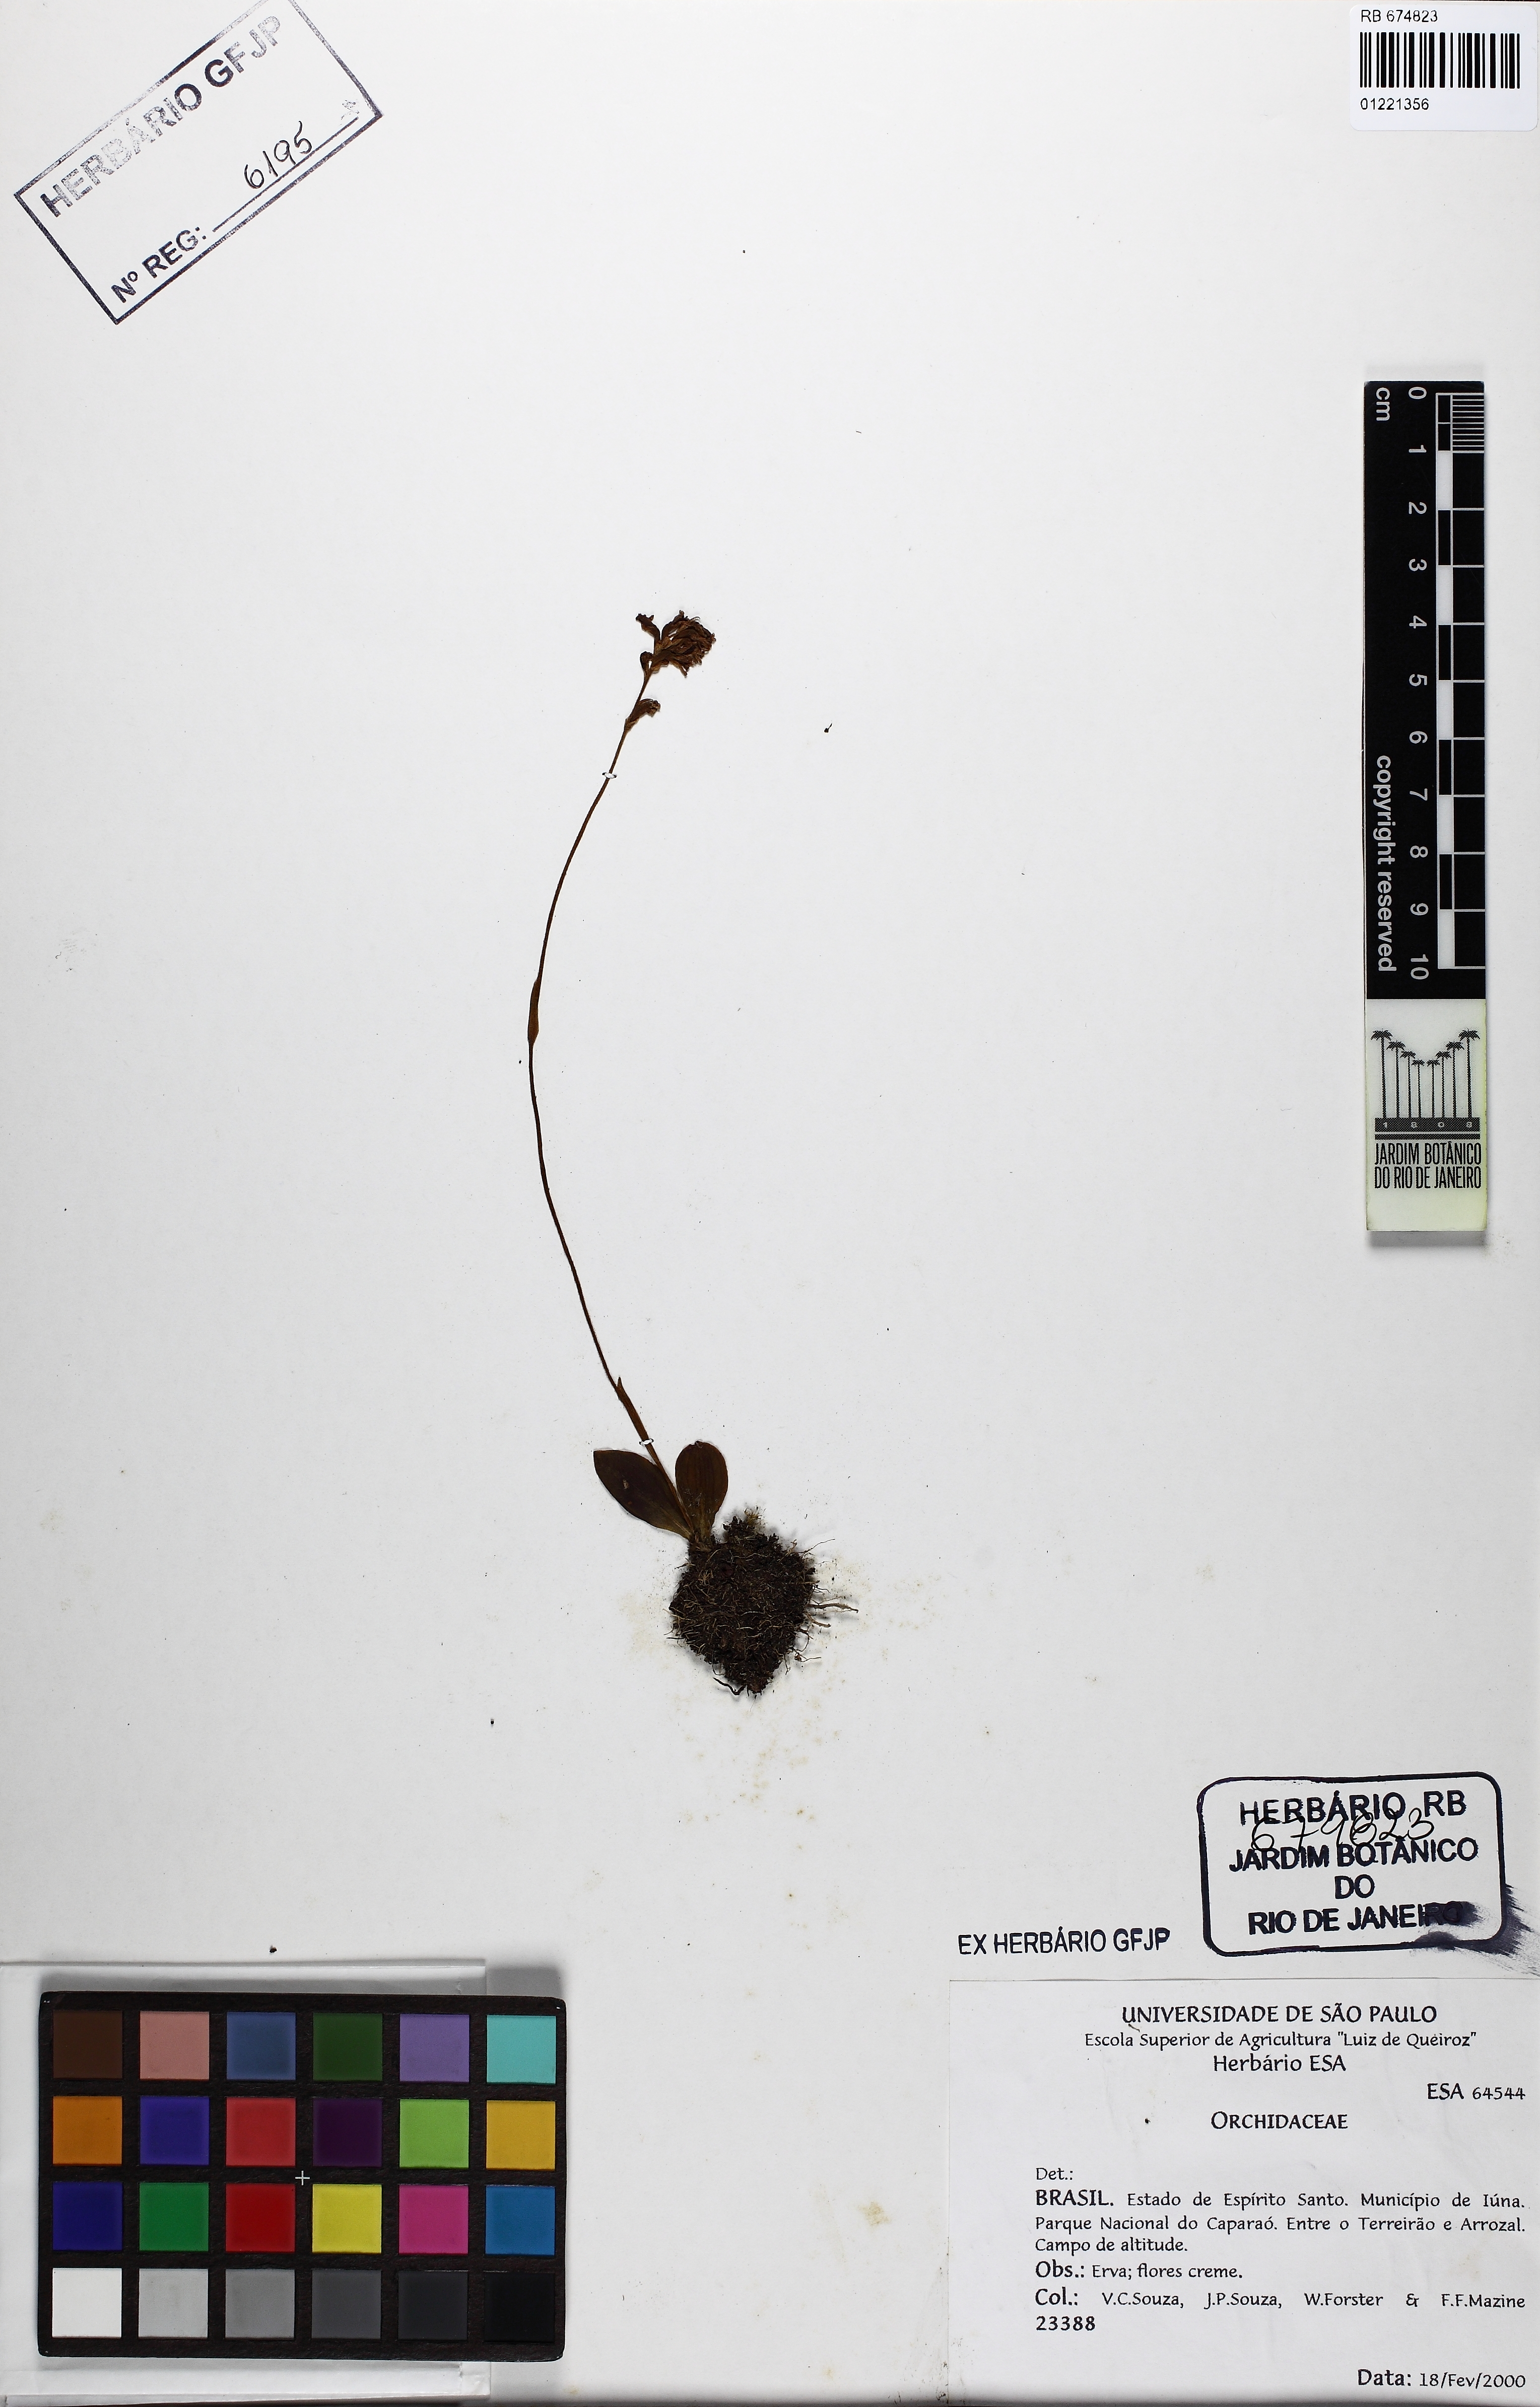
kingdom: Plantae
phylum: Tracheophyta
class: Liliopsida
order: Asparagales
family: Orchidaceae
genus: Sauroglossum
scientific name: Sauroglossum
